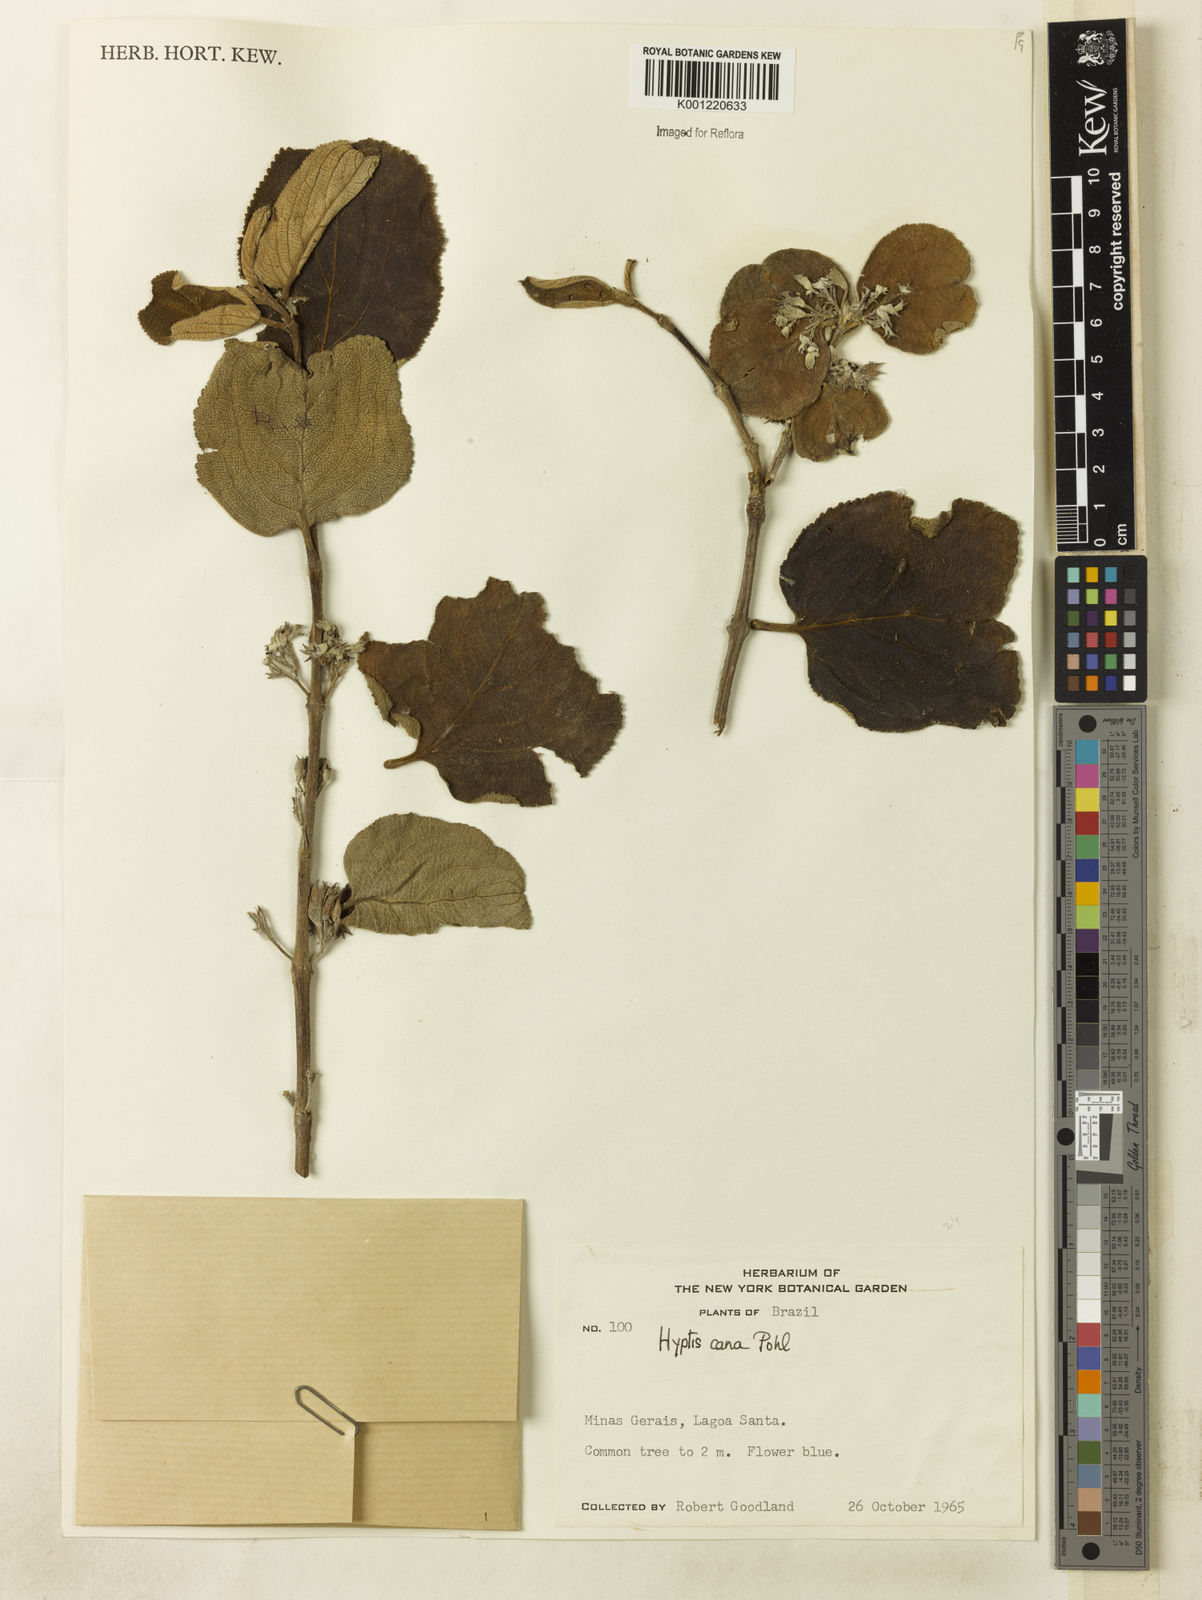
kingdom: Plantae
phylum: Tracheophyta
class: Magnoliopsida
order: Lamiales
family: Lamiaceae
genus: Hyptidendron
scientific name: Hyptidendron canum
